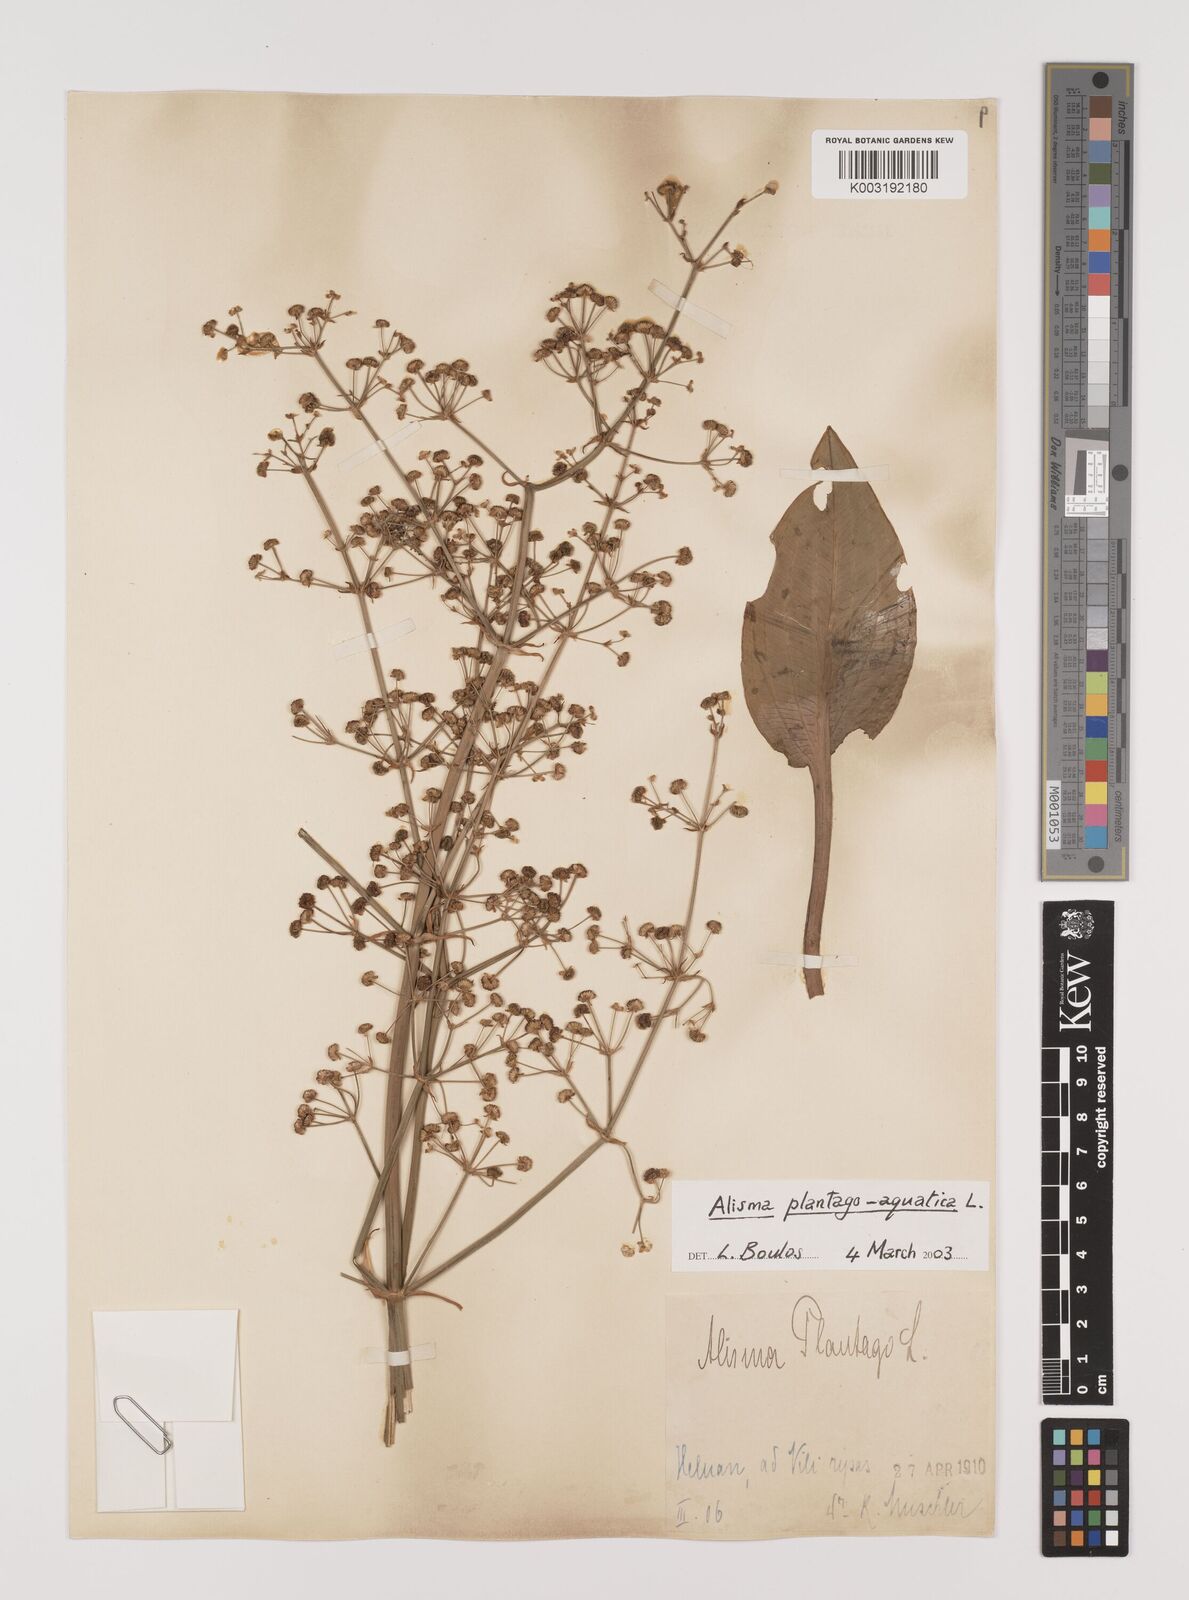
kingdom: Plantae
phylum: Tracheophyta
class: Liliopsida
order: Alismatales
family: Alismataceae
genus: Alisma
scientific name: Alisma plantago-aquatica
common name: Water-plantain
